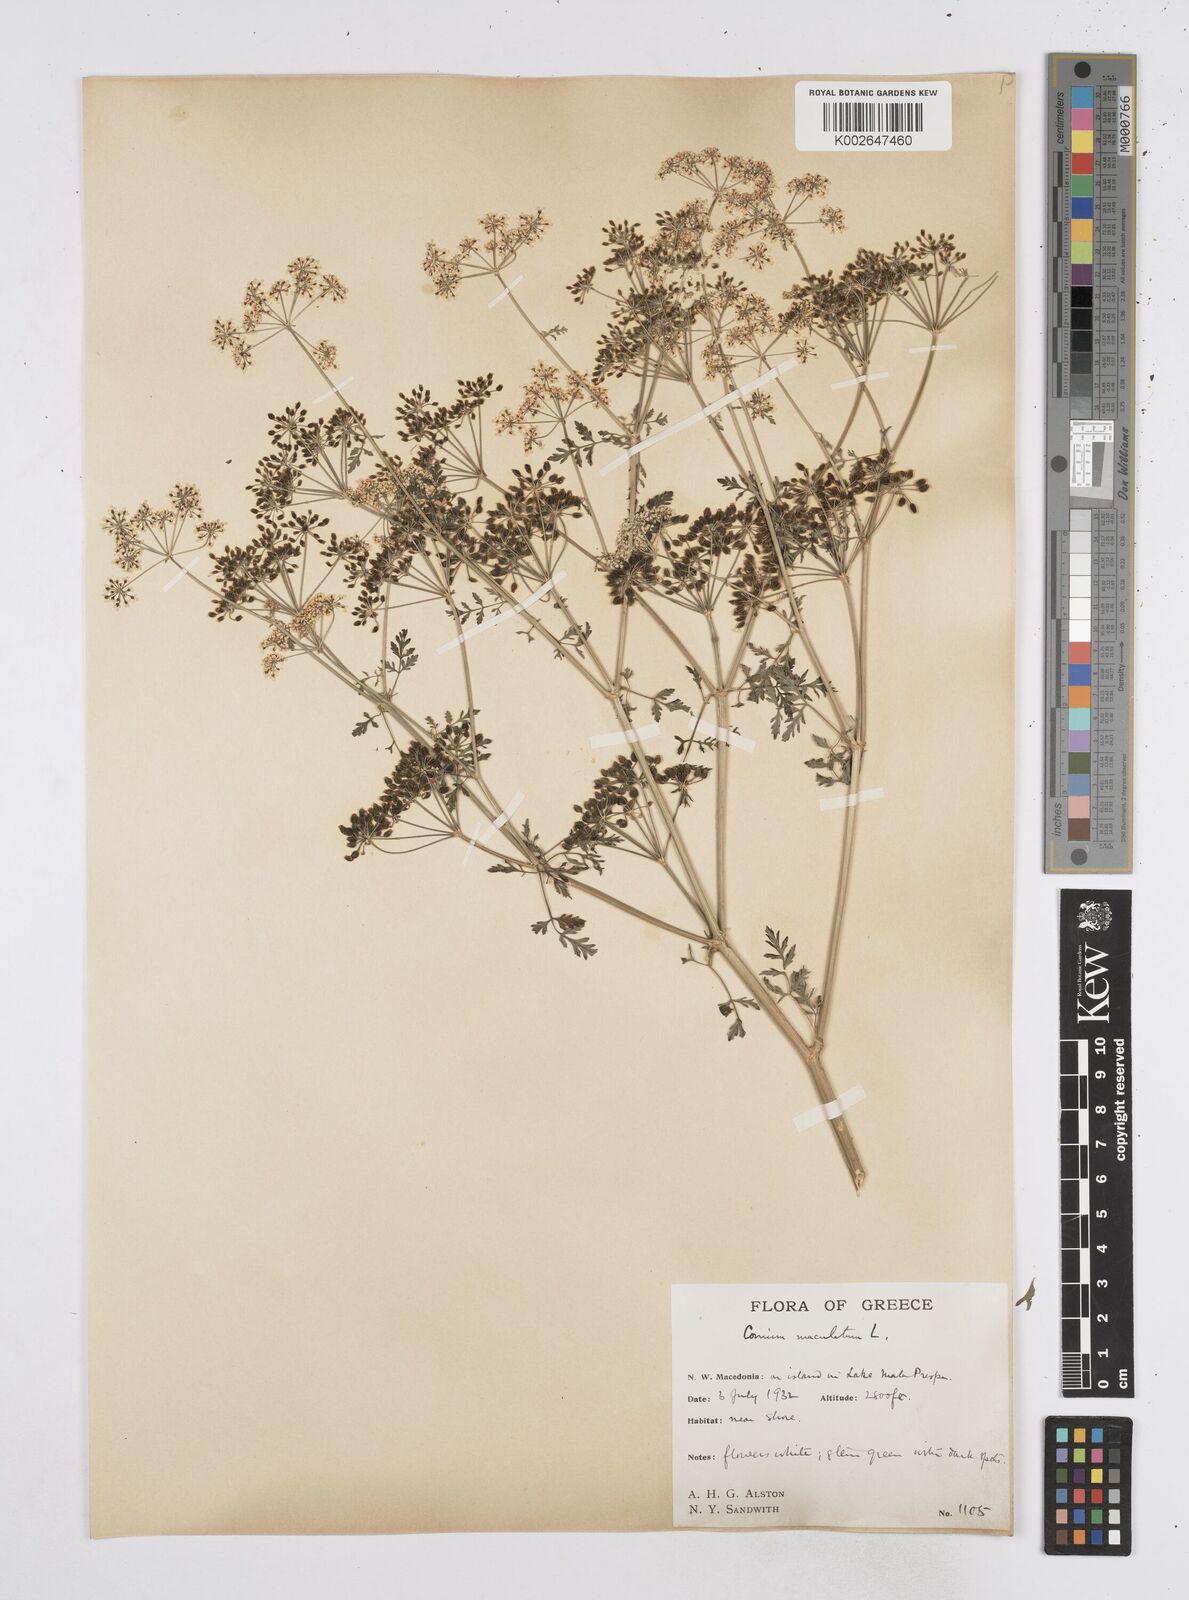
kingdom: Plantae
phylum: Tracheophyta
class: Magnoliopsida
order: Apiales
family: Apiaceae
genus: Conium
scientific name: Conium maculatum
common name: Hemlock
